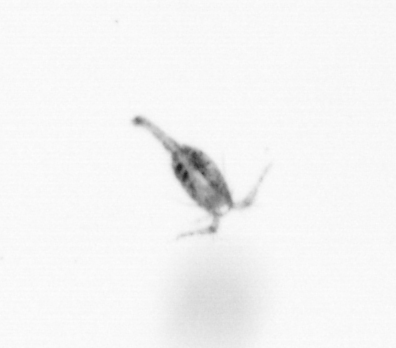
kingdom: Animalia
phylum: Arthropoda
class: Copepoda
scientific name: Copepoda
